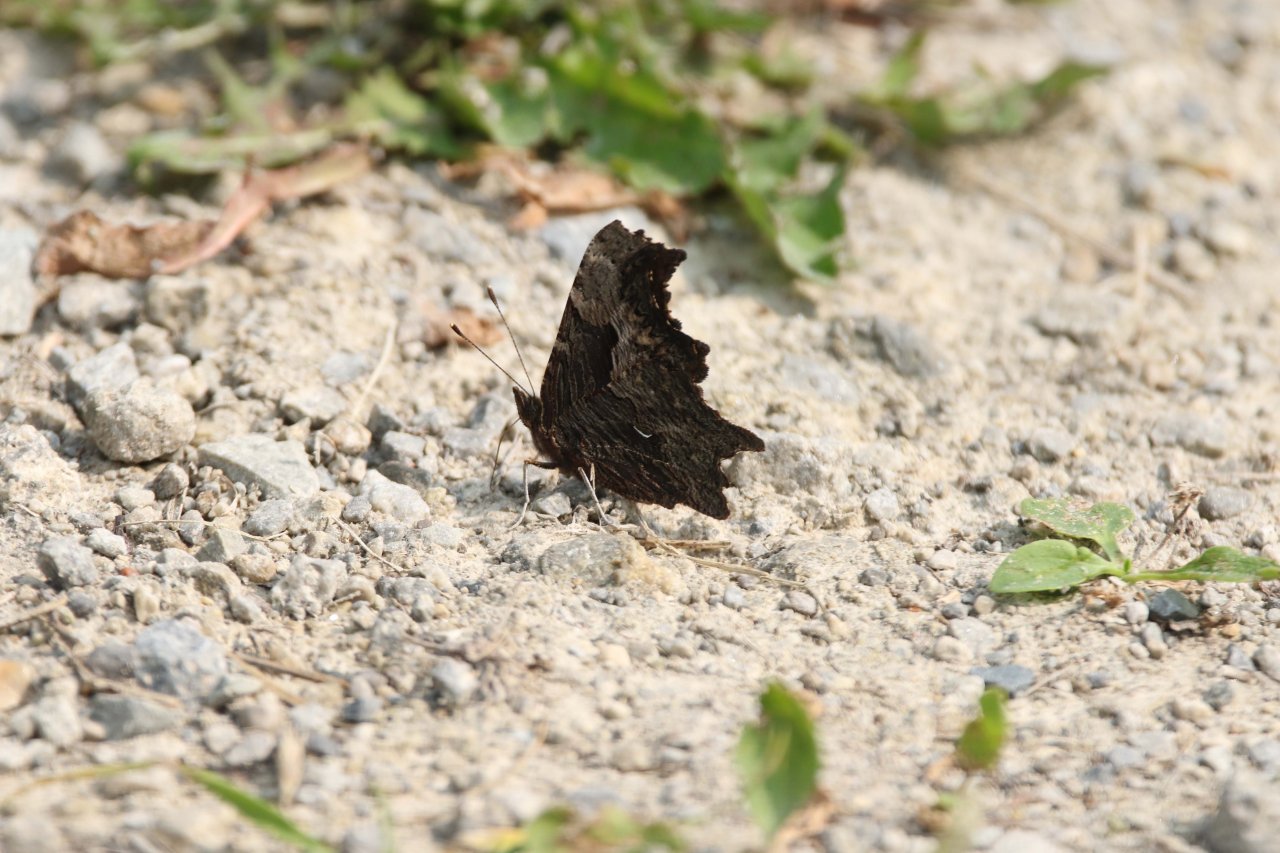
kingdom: Animalia
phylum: Arthropoda
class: Insecta
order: Lepidoptera
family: Nymphalidae
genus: Polygonia
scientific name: Polygonia progne
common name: Gray Comma
